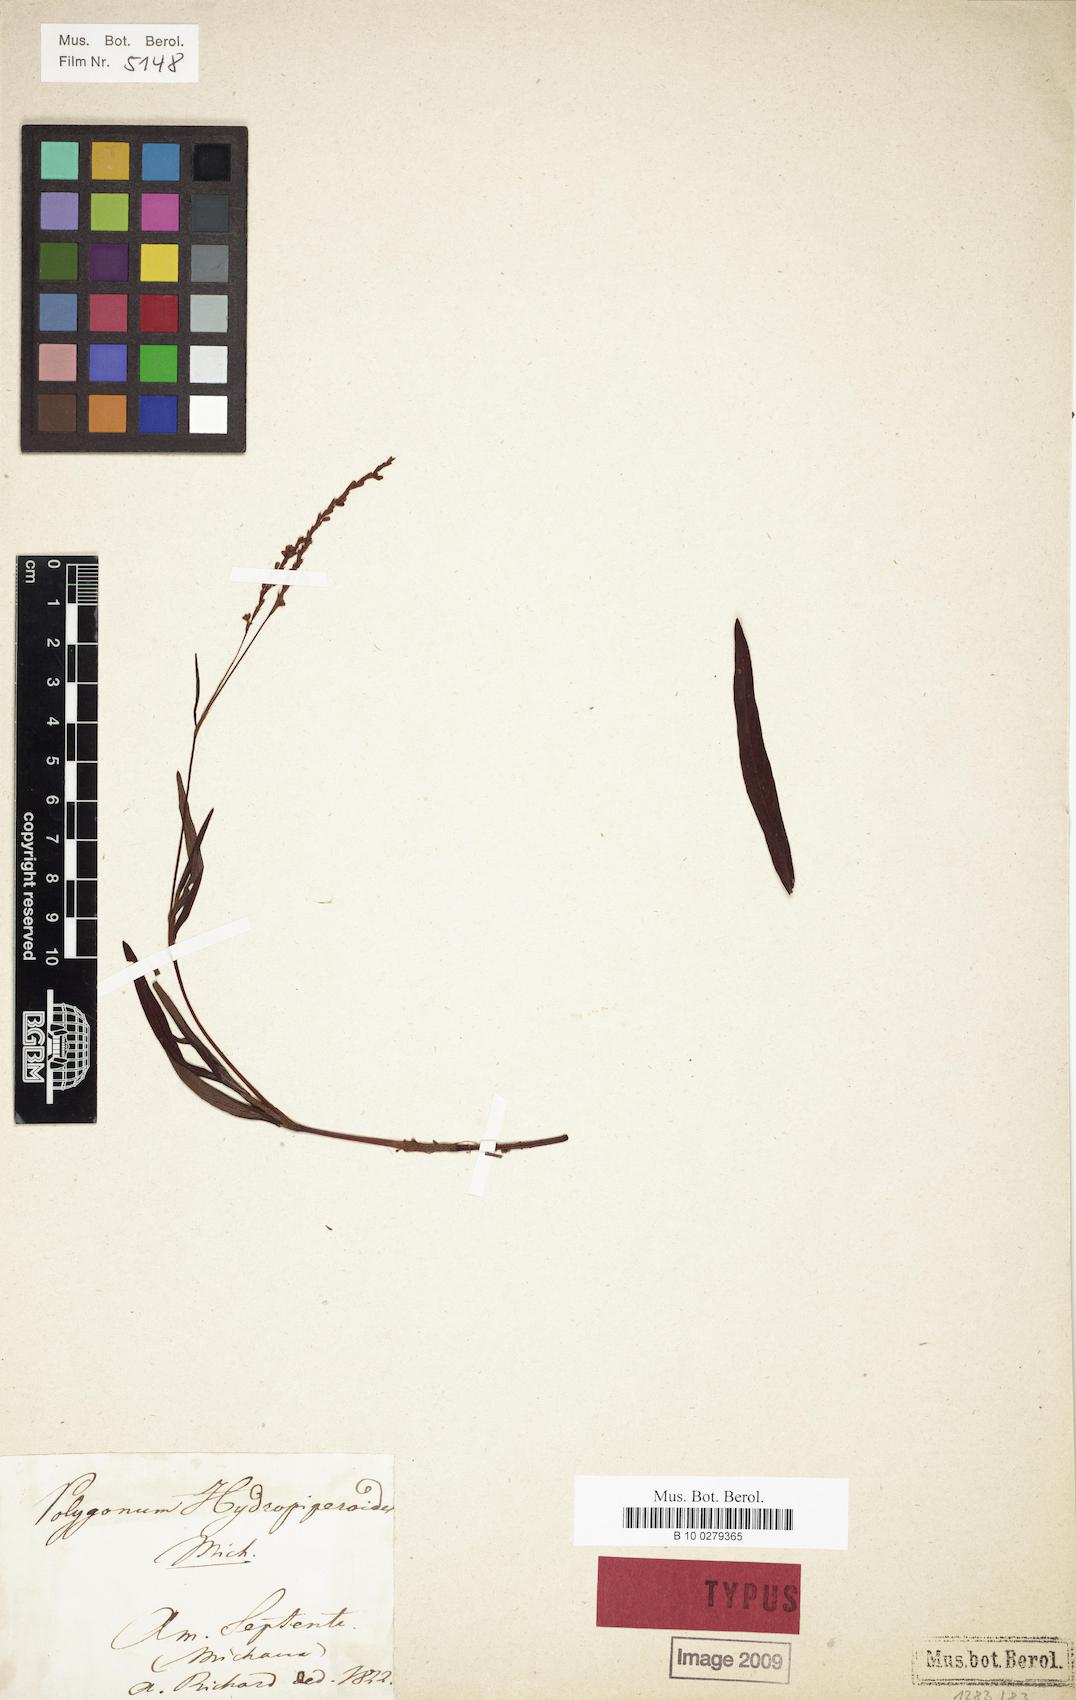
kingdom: Plantae
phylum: Tracheophyta
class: Magnoliopsida
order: Caryophyllales
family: Polygonaceae
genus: Persicaria
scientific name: Persicaria hydropiperoides
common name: Swamp smartweed
